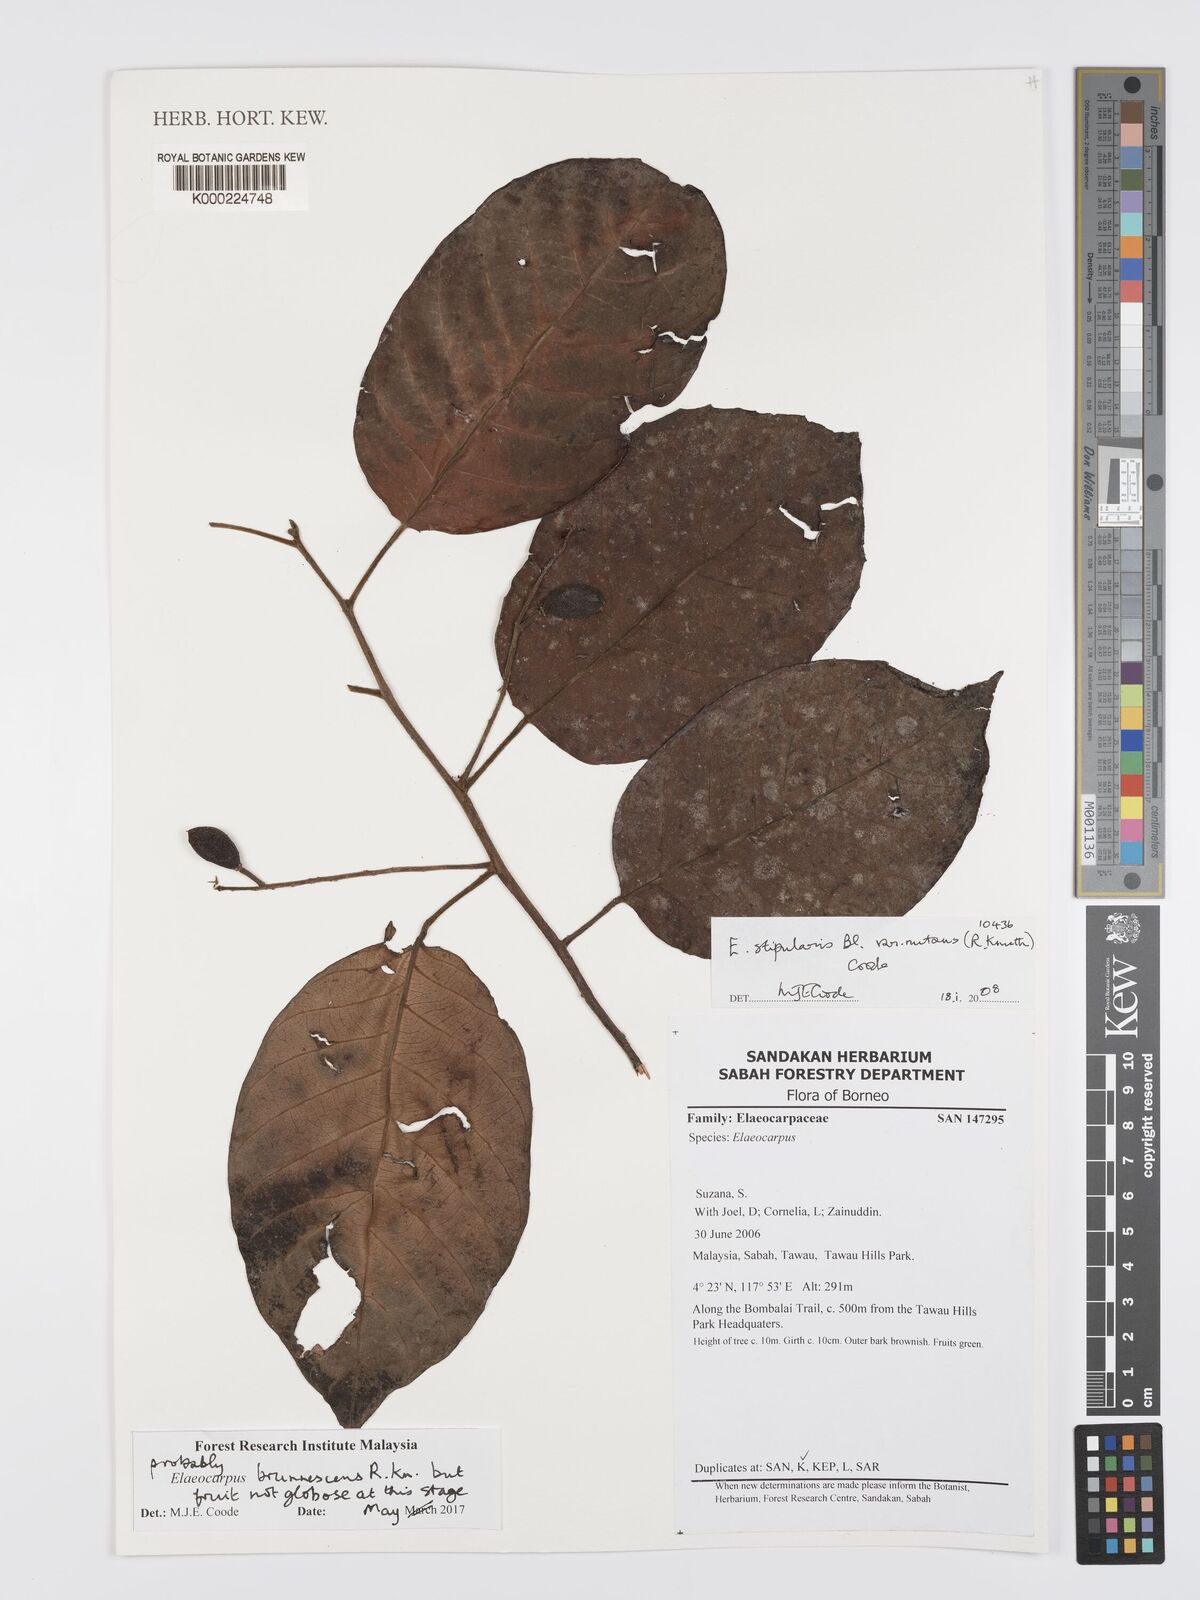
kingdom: Plantae
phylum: Tracheophyta
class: Magnoliopsida
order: Oxalidales
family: Elaeocarpaceae
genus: Elaeocarpus
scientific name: Elaeocarpus stipularis
